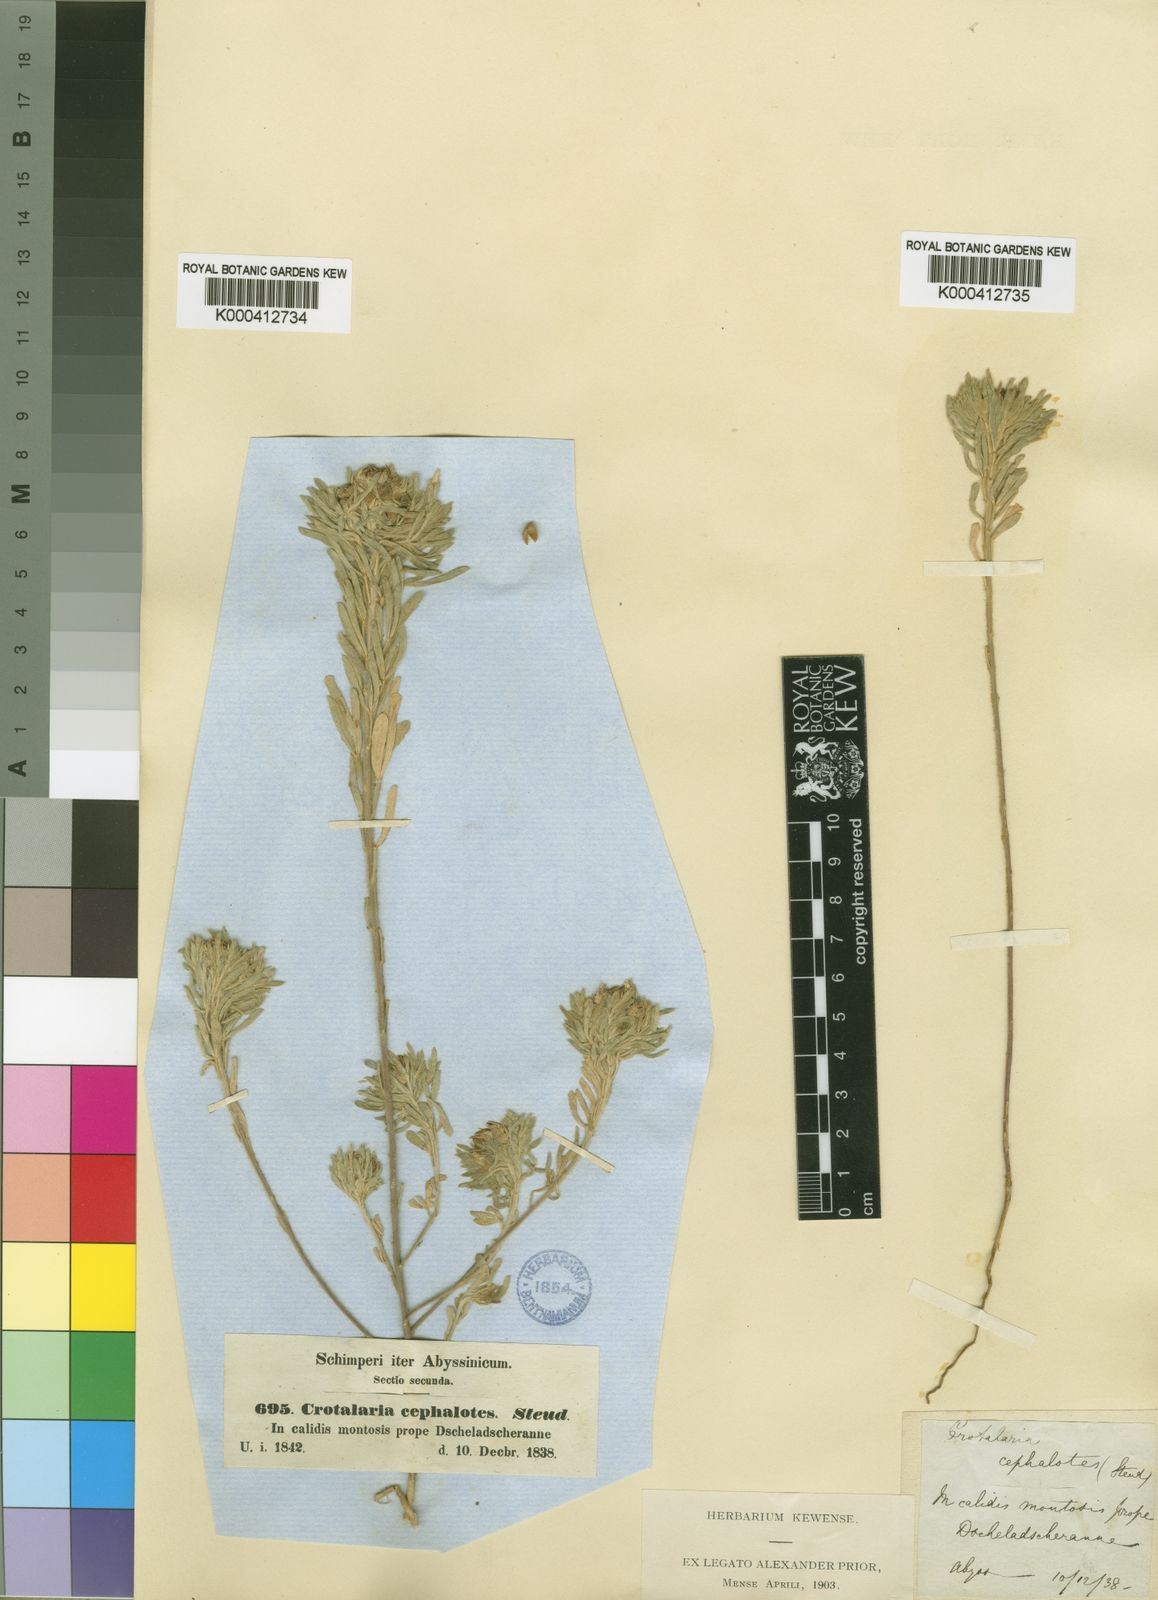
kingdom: Plantae
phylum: Tracheophyta
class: Magnoliopsida
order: Fabales
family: Fabaceae
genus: Crotalaria
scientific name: Crotalaria cephalotes
